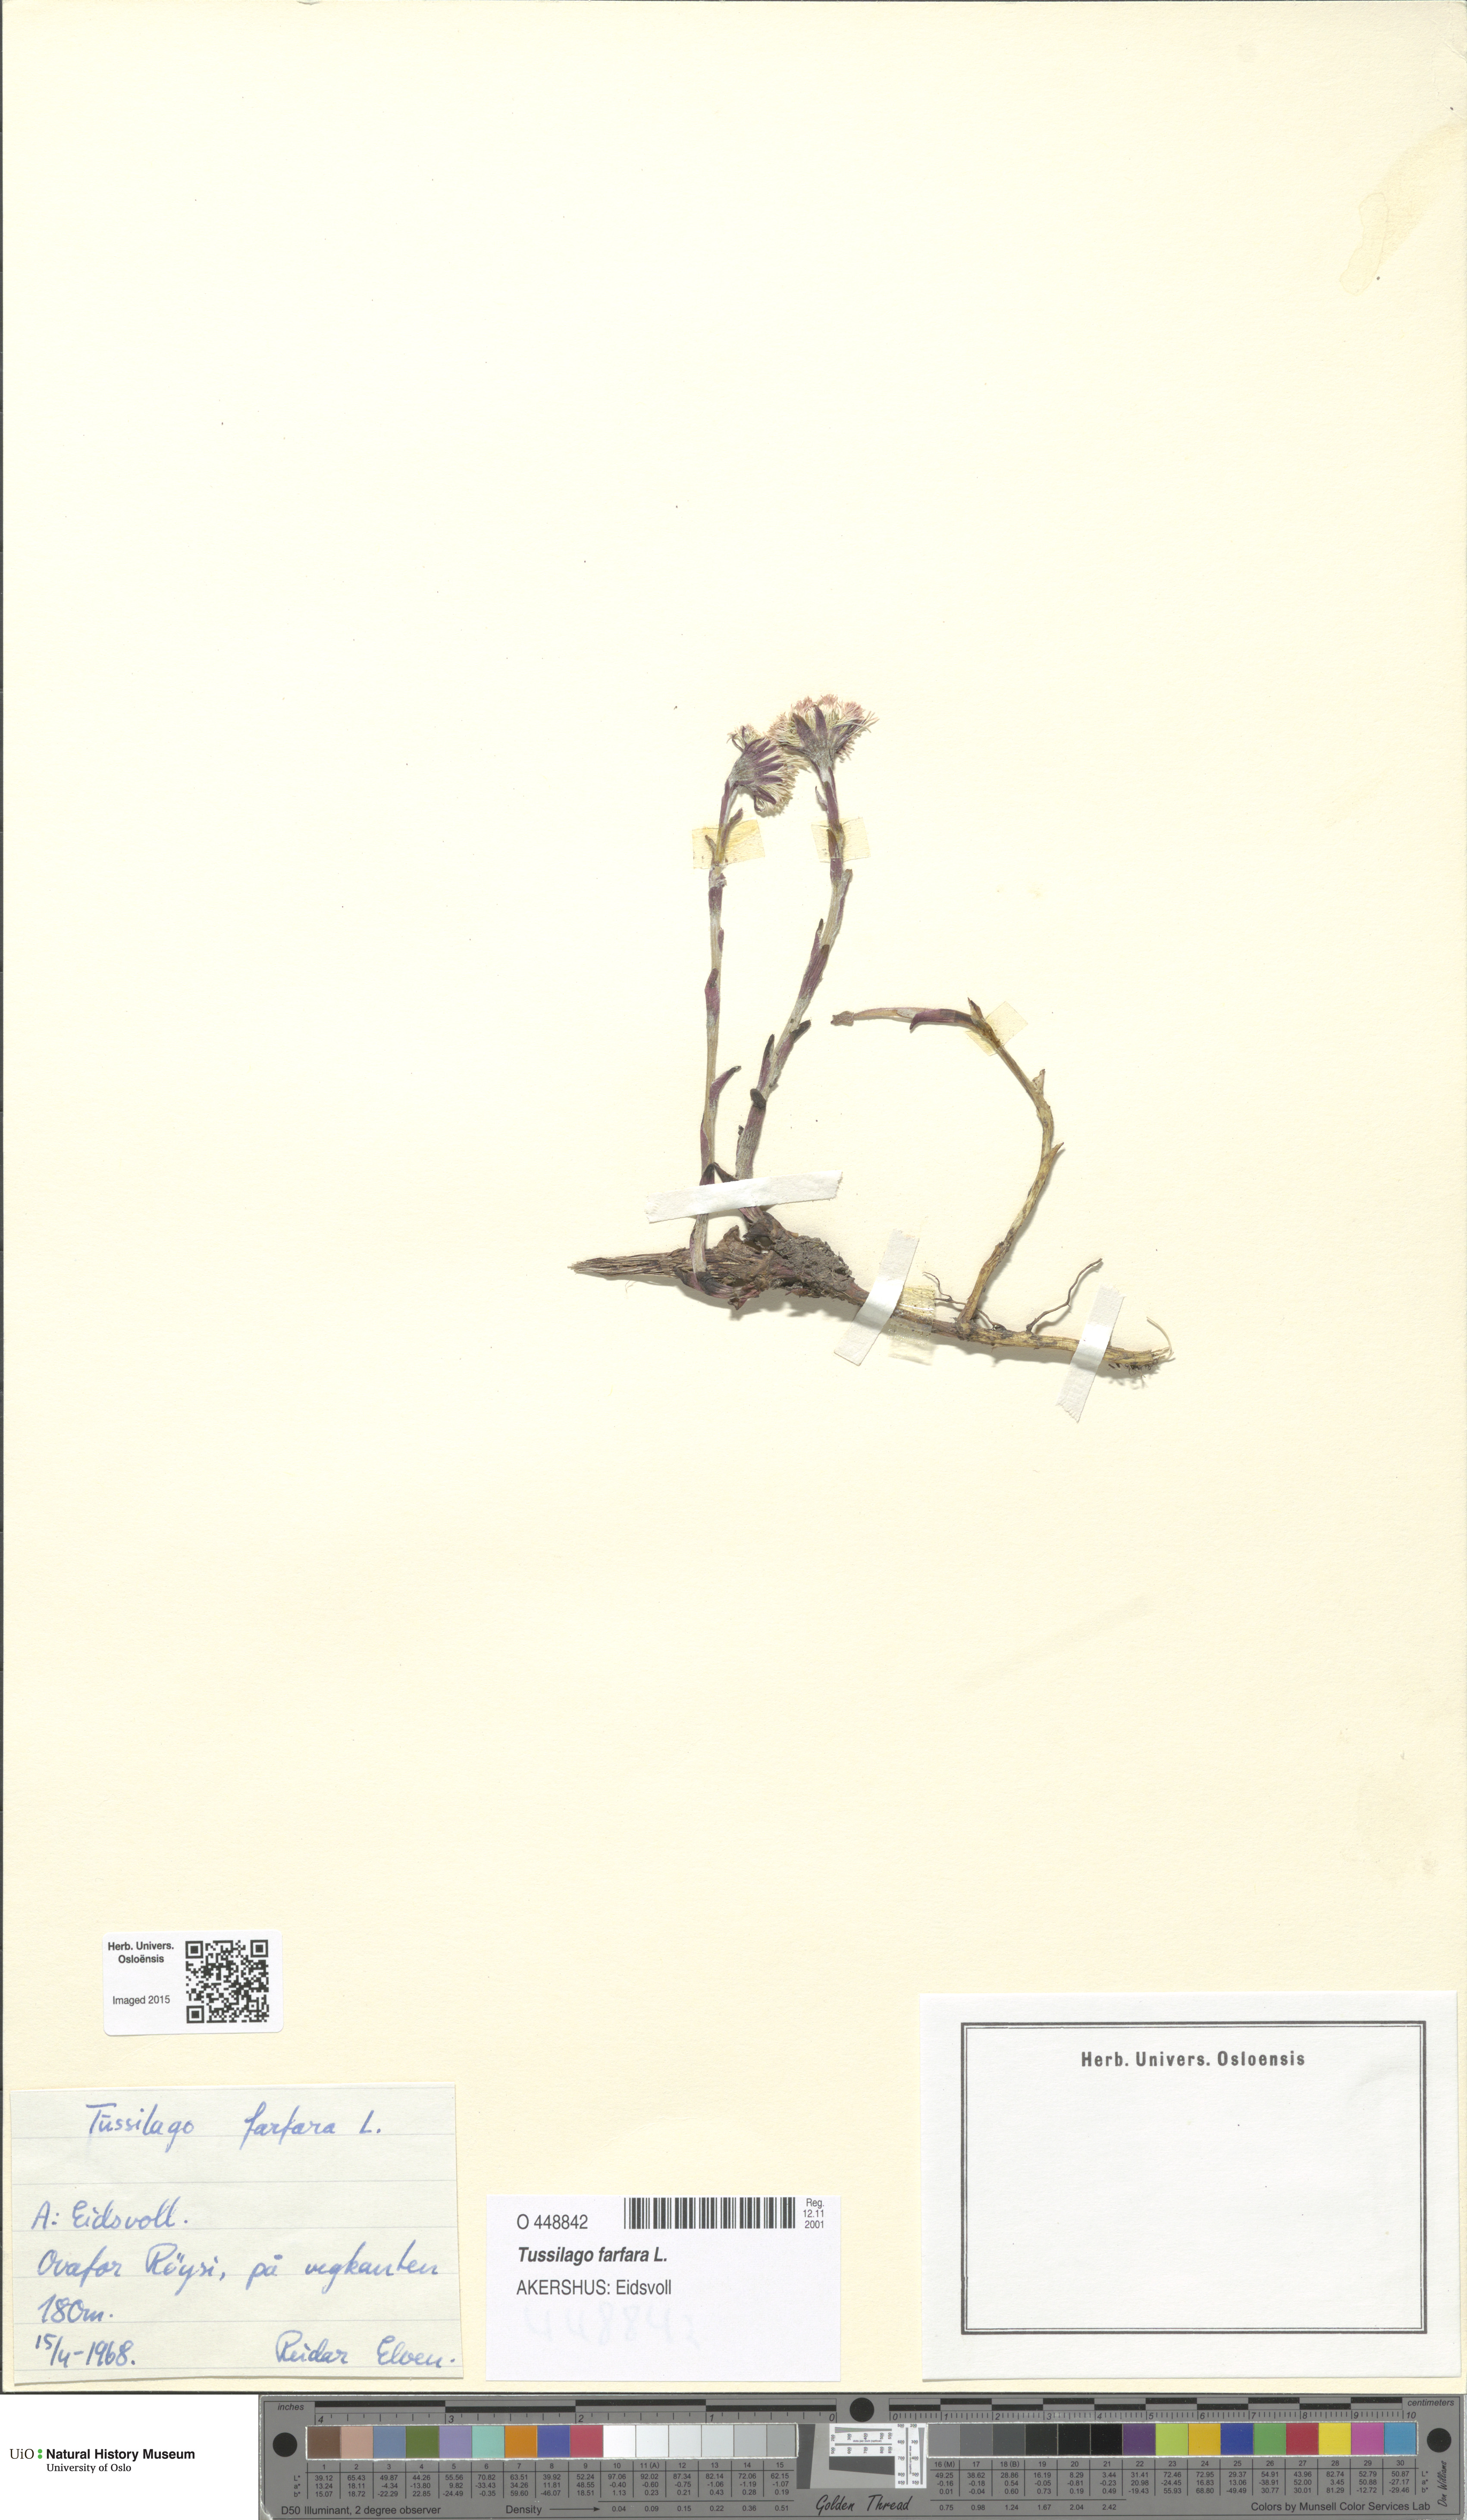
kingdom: Plantae
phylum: Tracheophyta
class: Magnoliopsida
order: Asterales
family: Asteraceae
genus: Tussilago
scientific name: Tussilago farfara
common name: Coltsfoot
